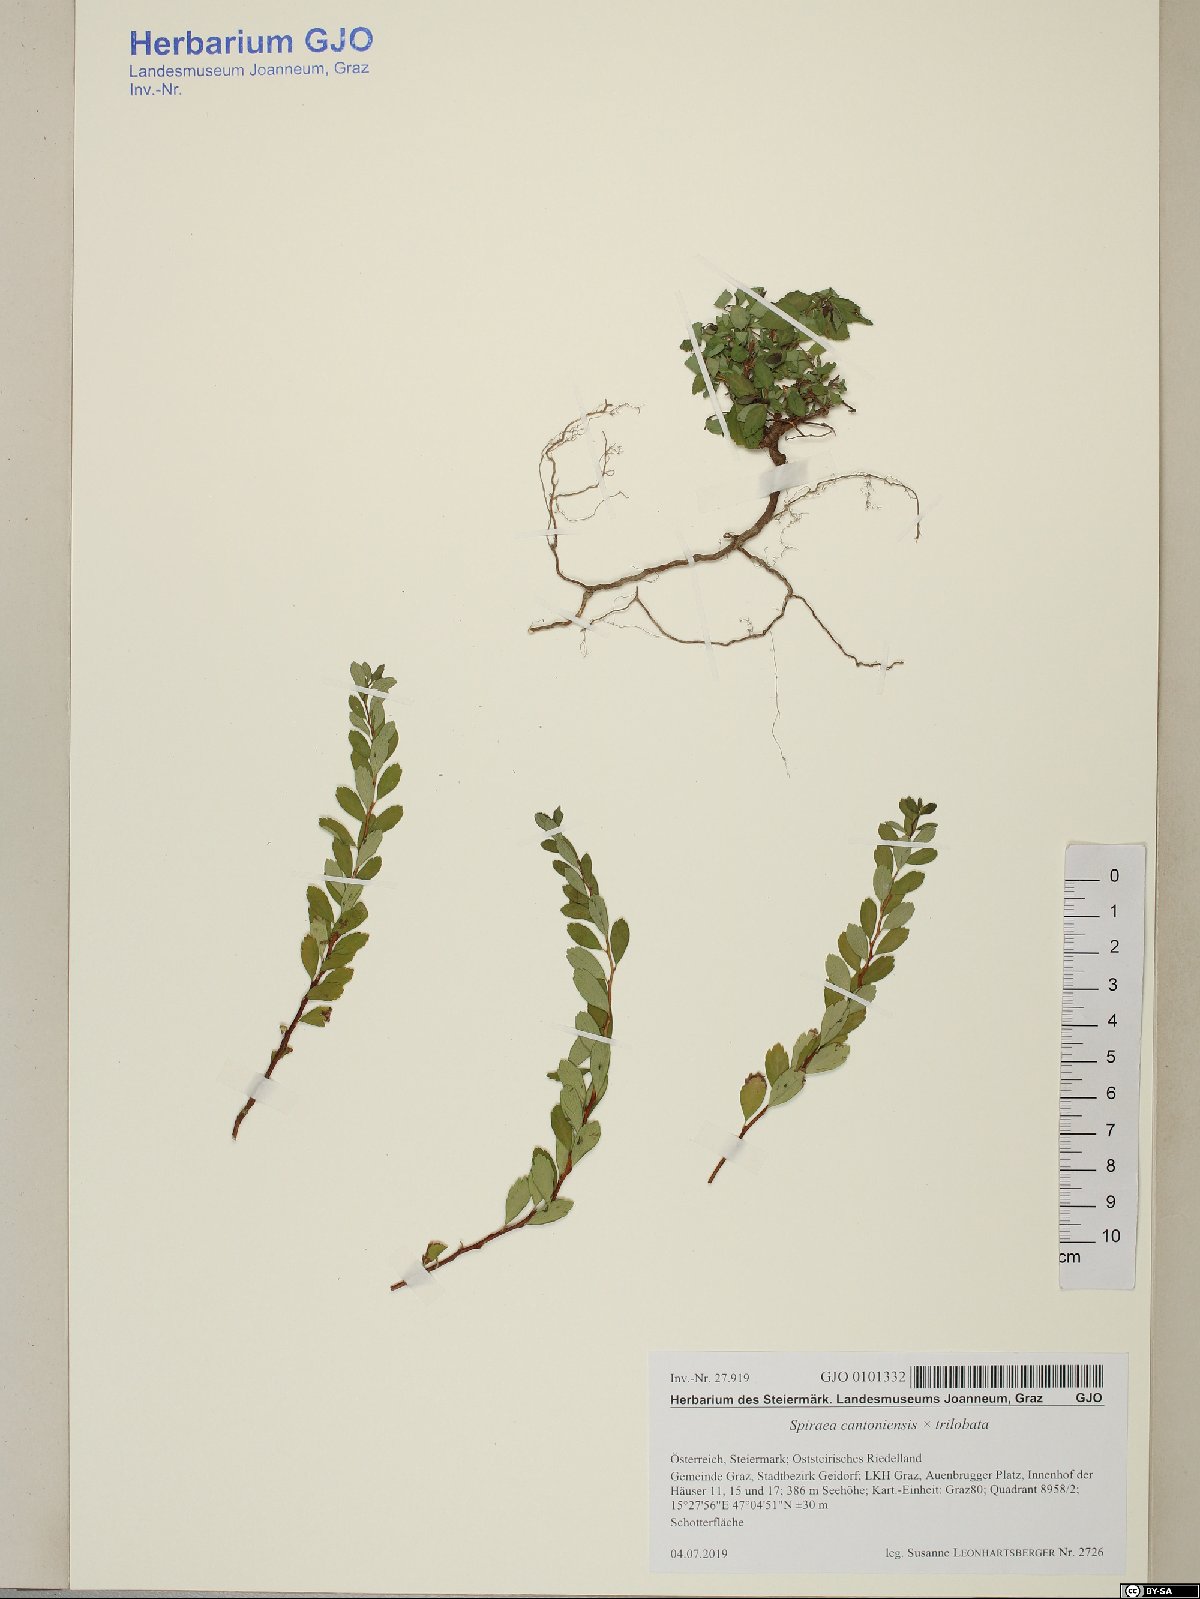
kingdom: Plantae
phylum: Tracheophyta
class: Magnoliopsida
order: Rosales
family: Rosaceae
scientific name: Rosaceae
